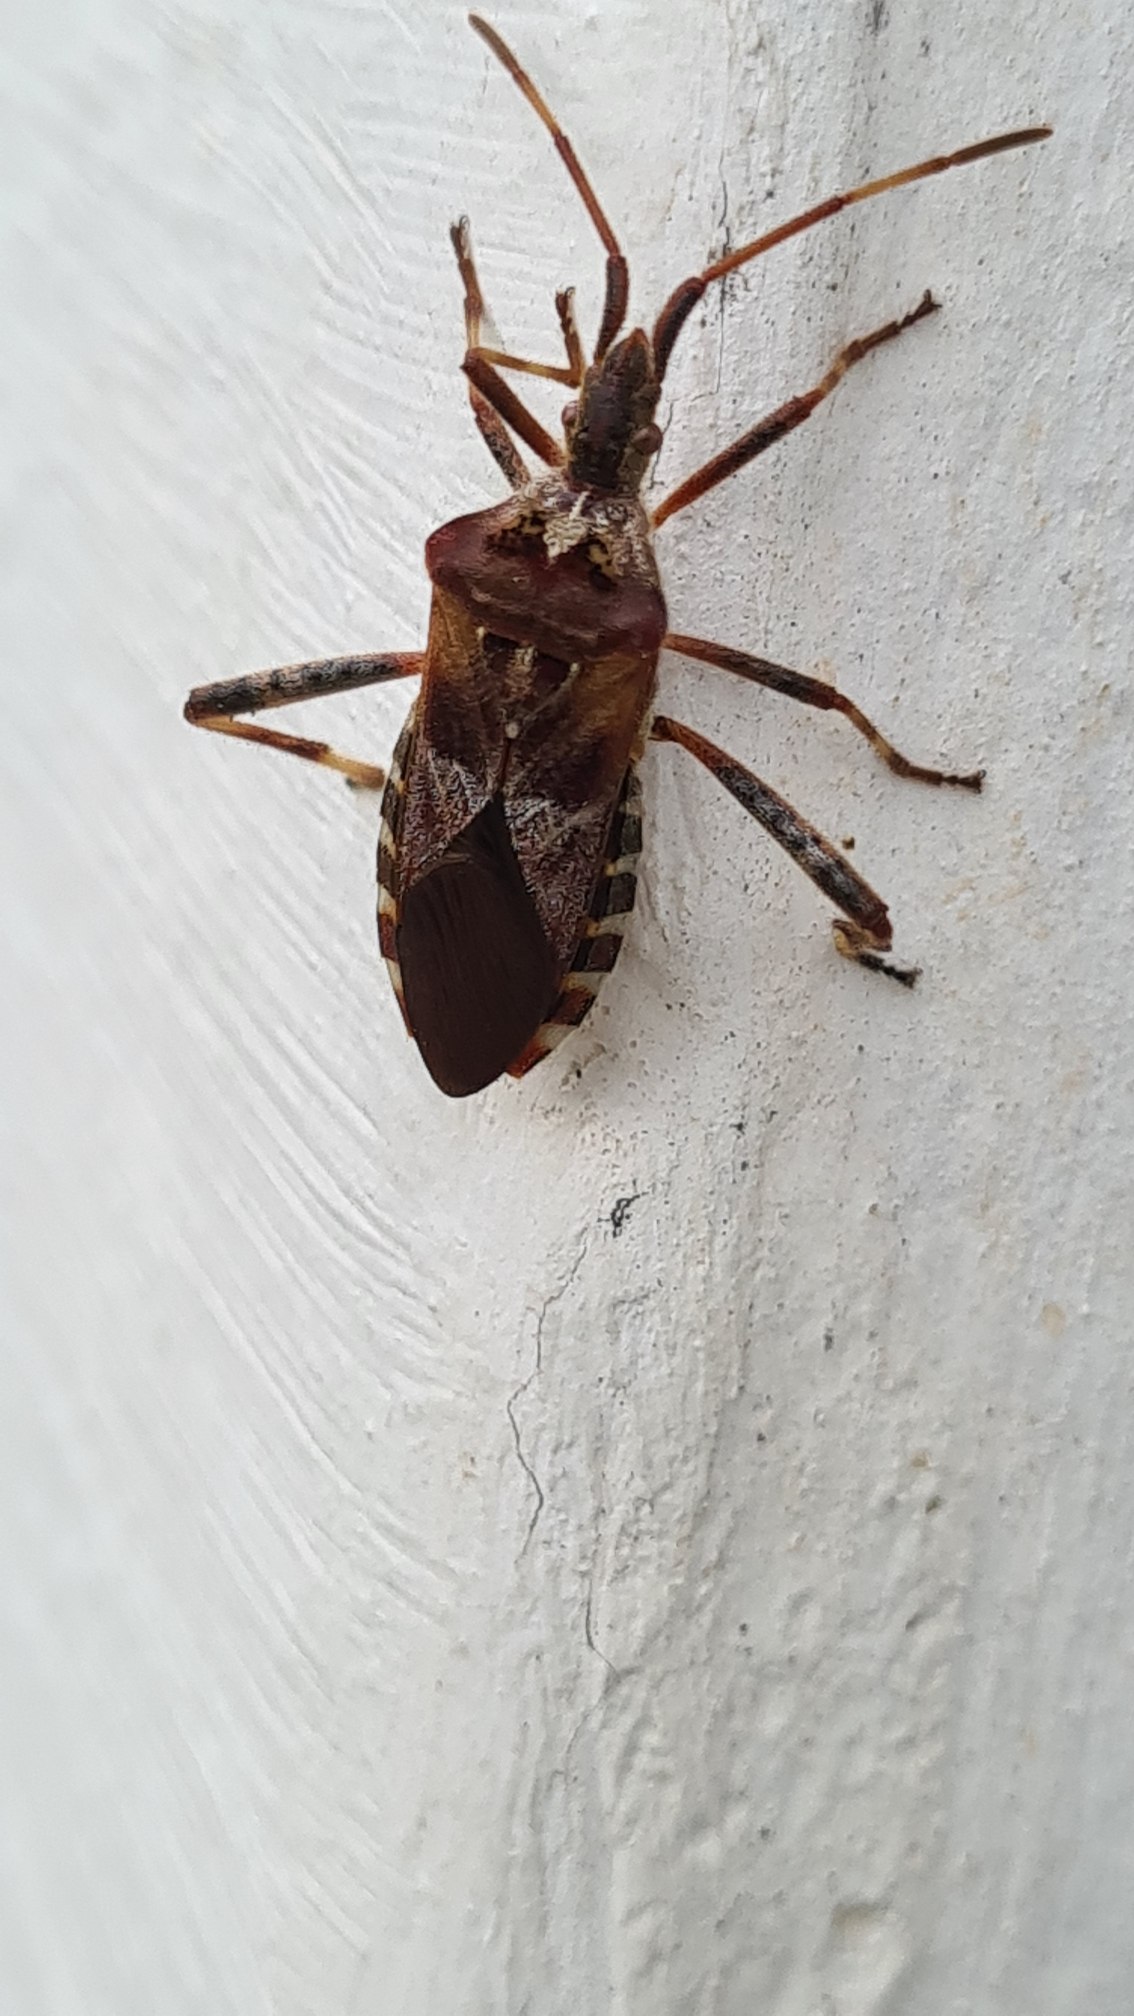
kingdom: Animalia
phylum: Arthropoda
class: Insecta
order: Hemiptera
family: Coreidae
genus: Leptoglossus
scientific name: Leptoglossus occidentalis
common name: Amerikansk fyrretæge
